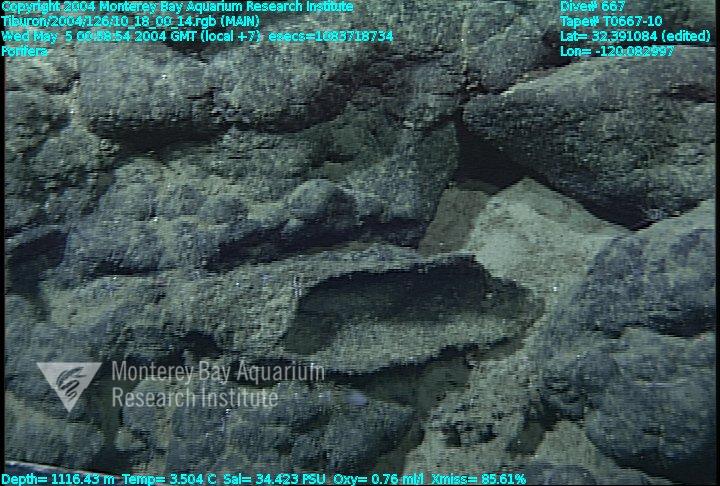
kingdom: Animalia
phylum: Porifera
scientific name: Porifera
